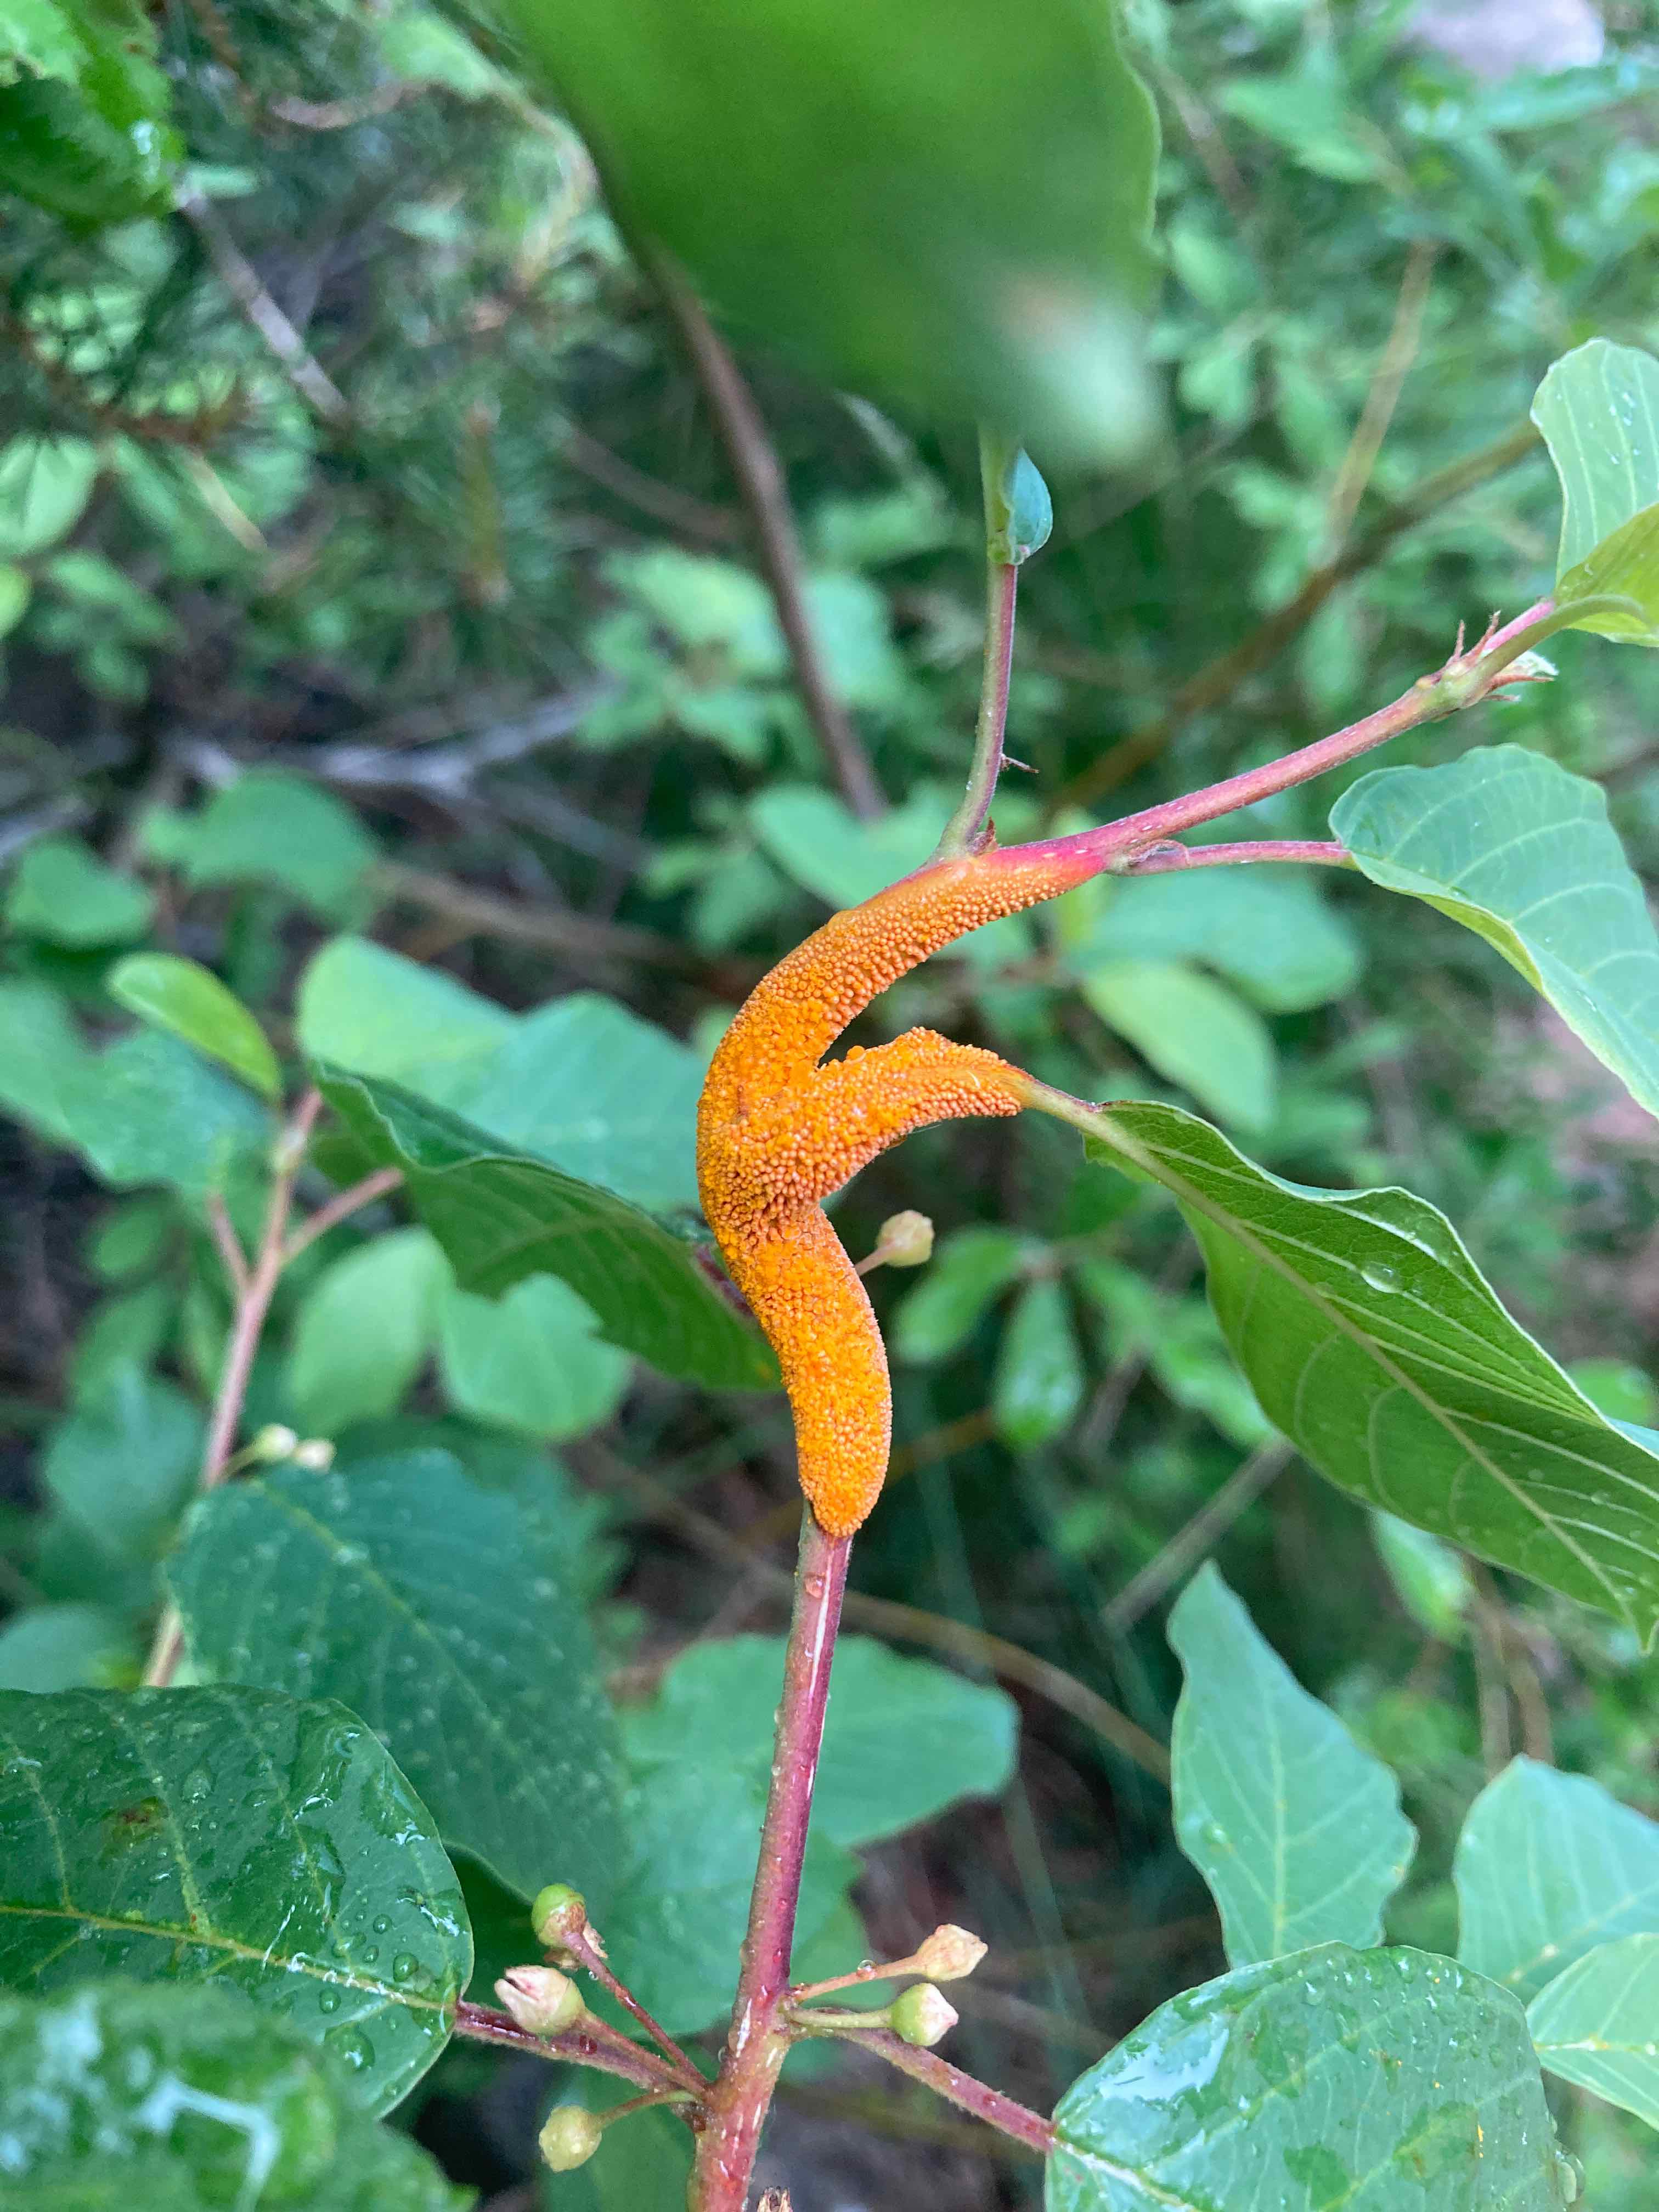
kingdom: Fungi
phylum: Basidiomycota
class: Pucciniomycetes
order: Pucciniales
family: Pucciniaceae
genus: Puccinia
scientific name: Puccinia coronata
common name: Crown rust
